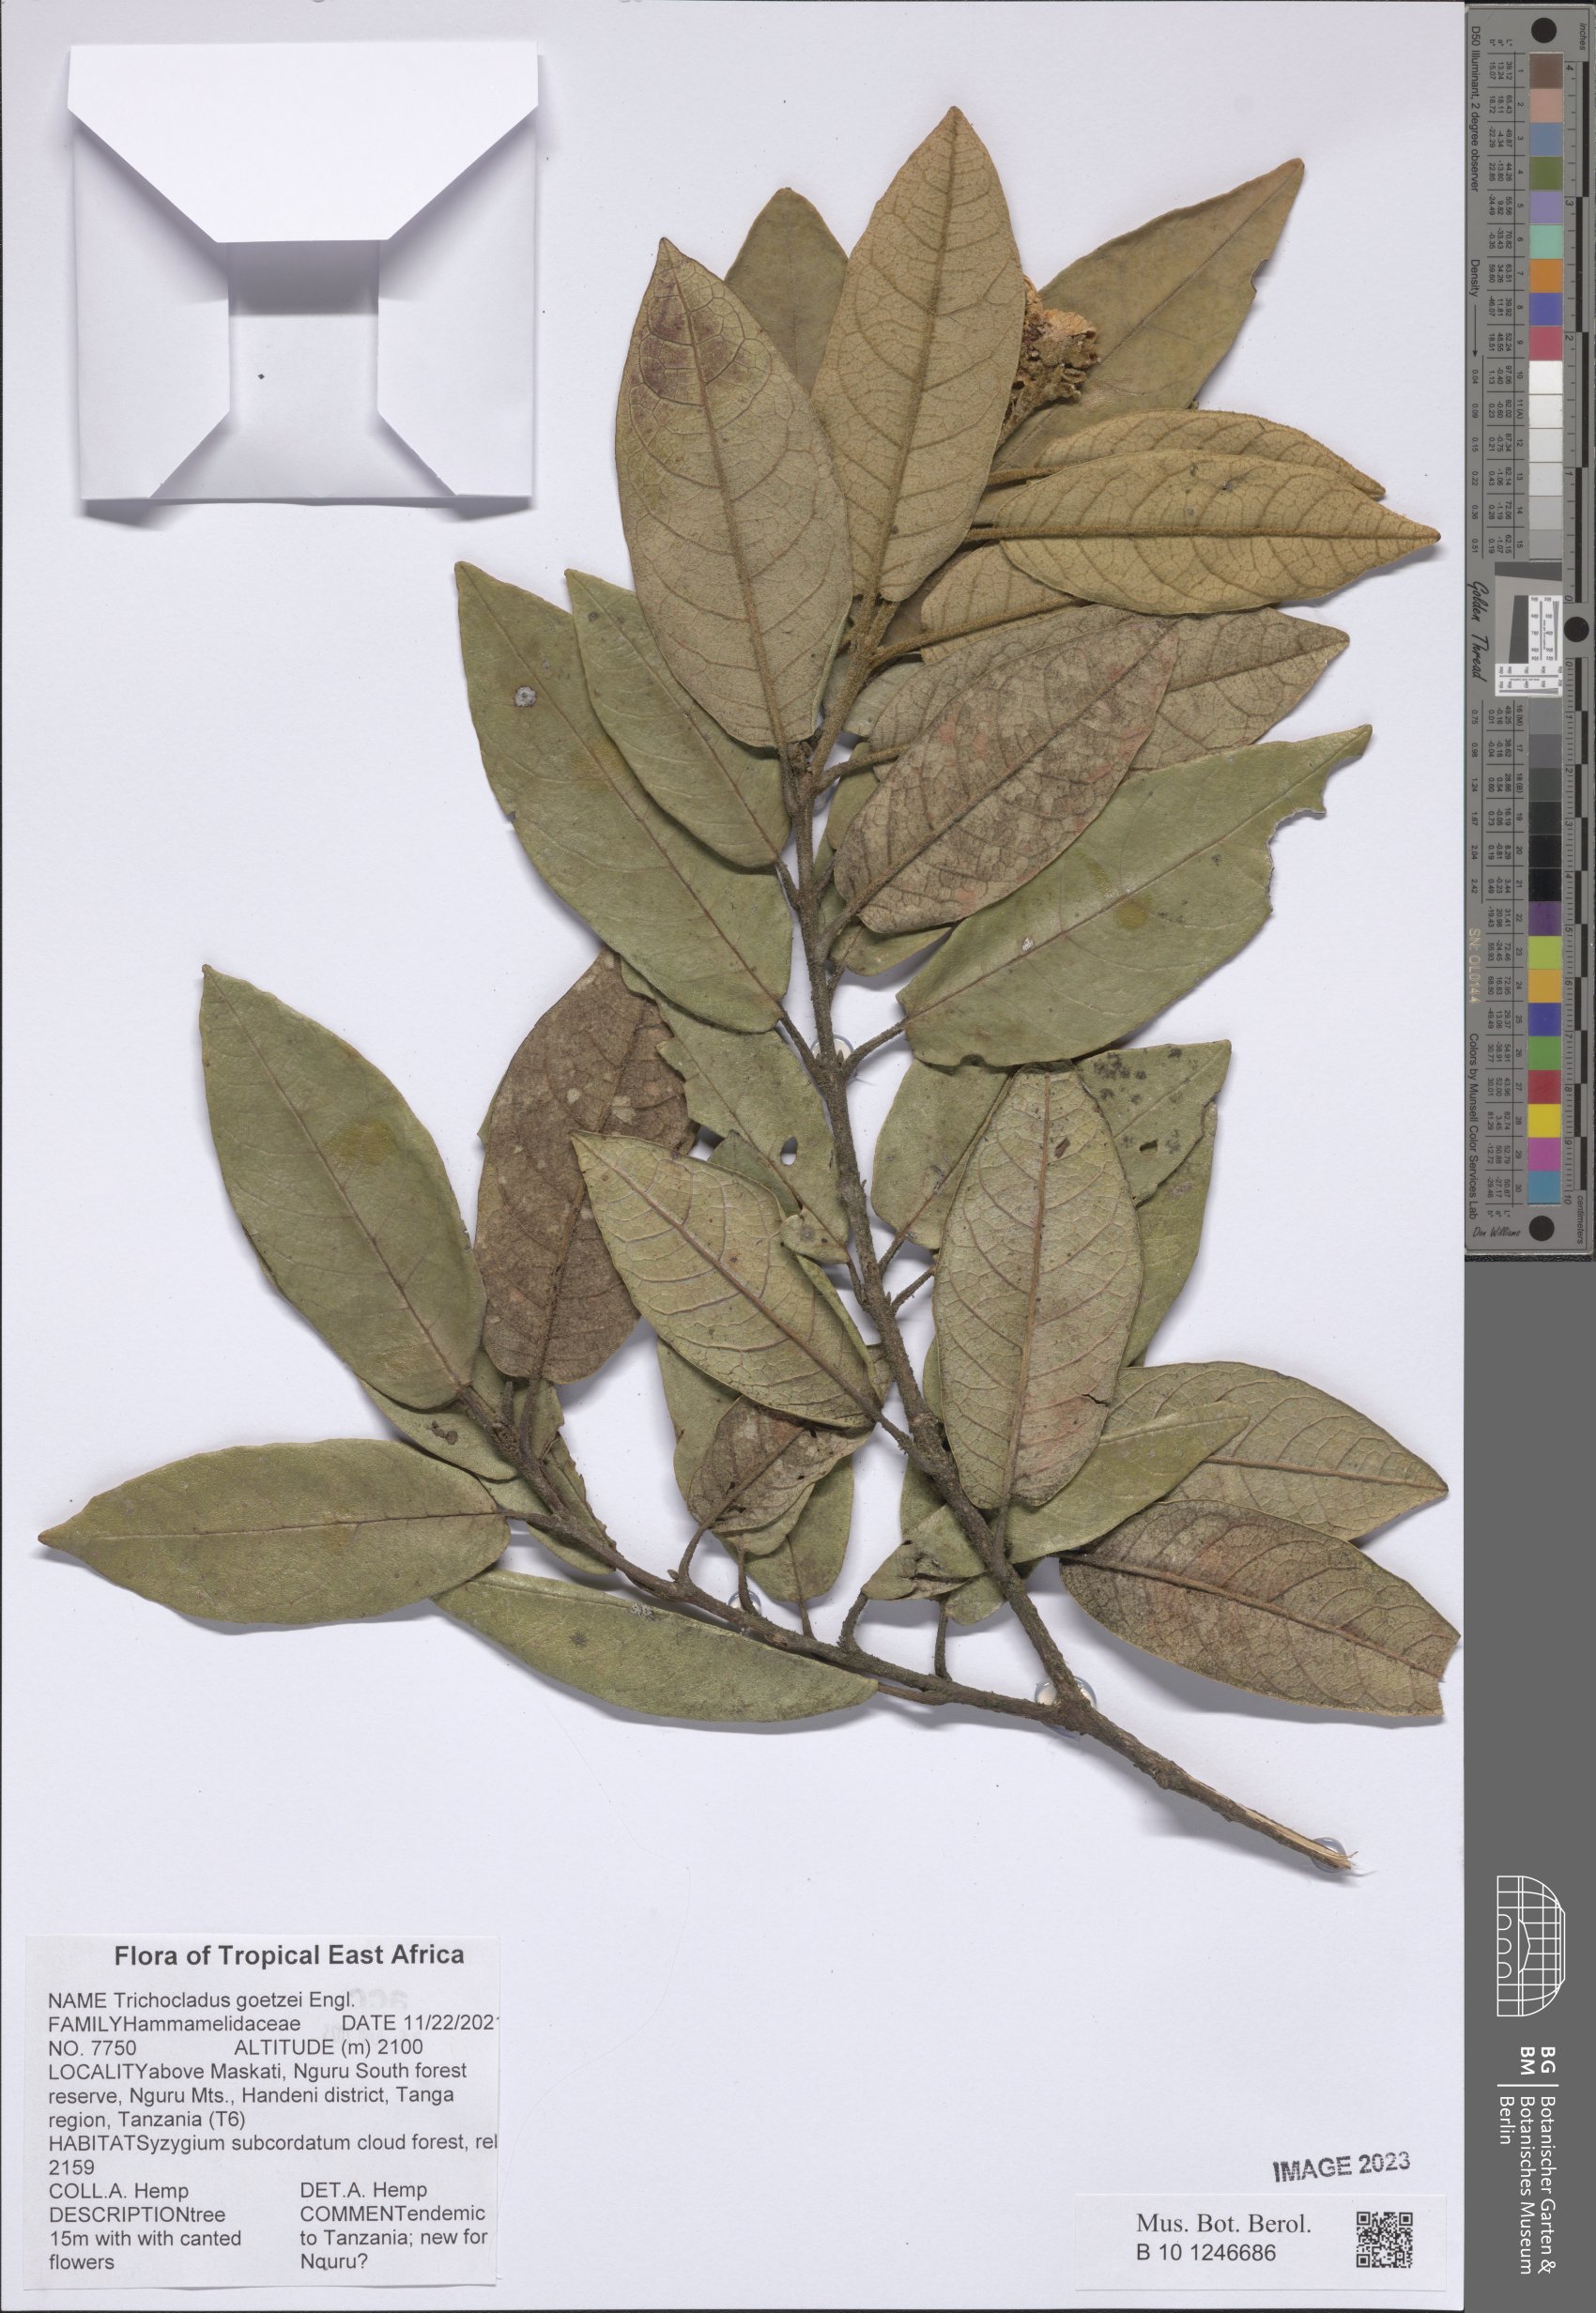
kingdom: Plantae
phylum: Tracheophyta
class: Magnoliopsida
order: Saxifragales
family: Hamamelidaceae
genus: Trichocladus
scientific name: Trichocladus goetzei
